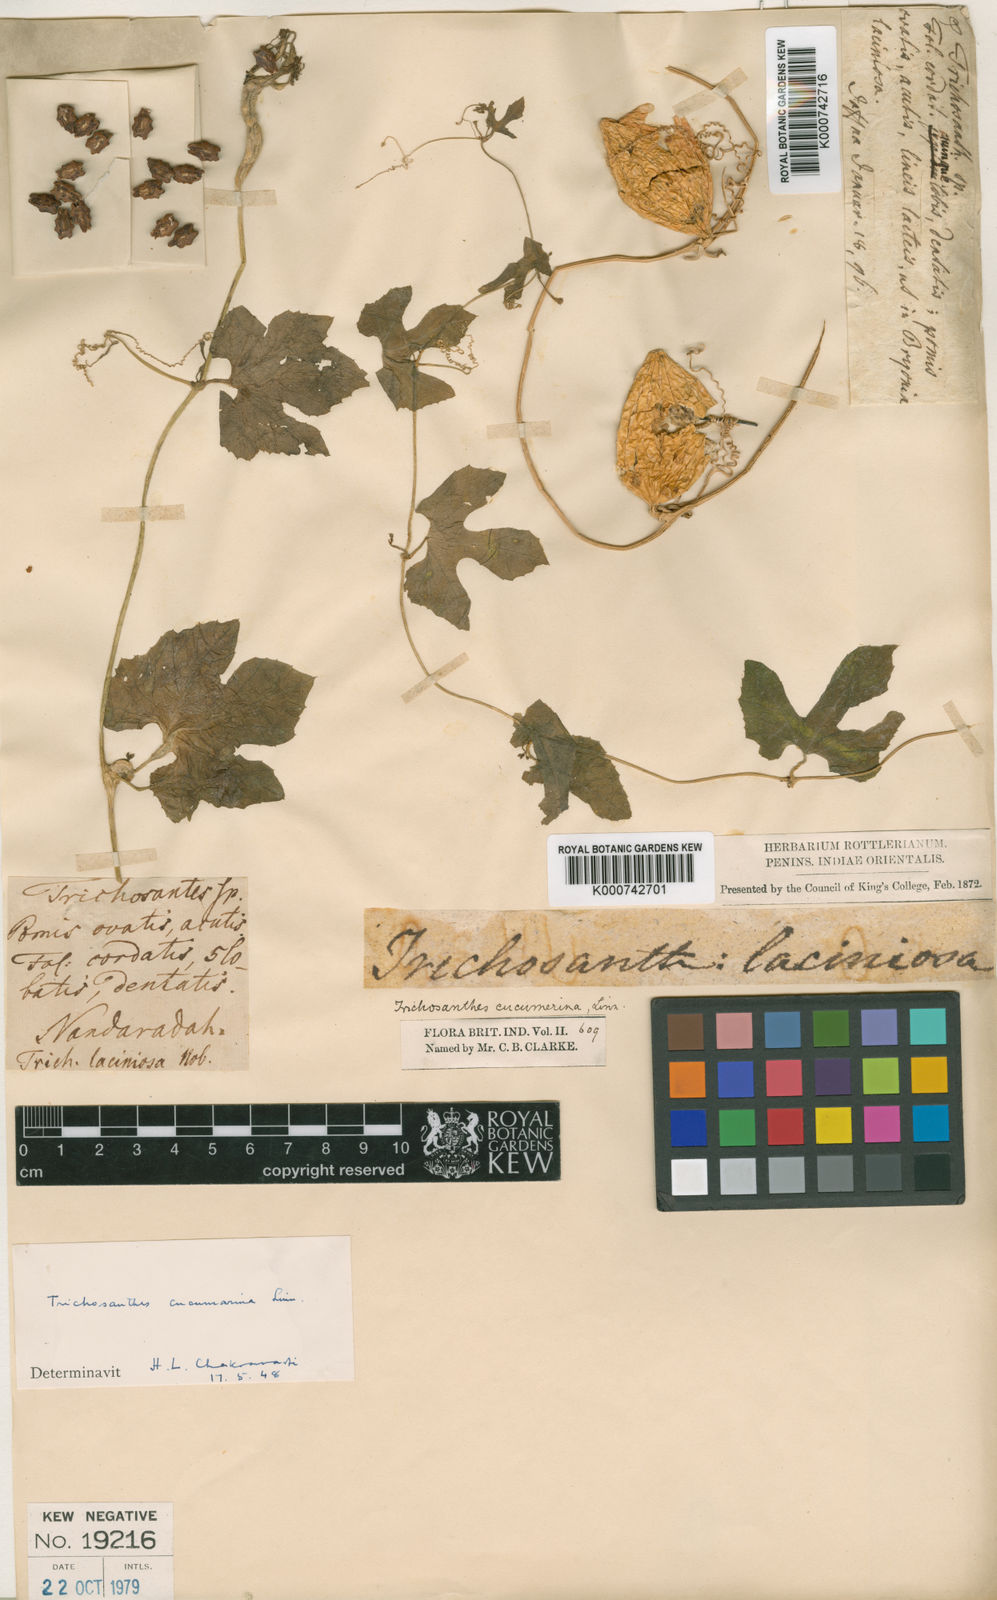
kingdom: Plantae
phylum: Tracheophyta
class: Magnoliopsida
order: Cucurbitales
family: Cucurbitaceae
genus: Trichosanthes
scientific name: Trichosanthes cucumerina
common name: Snakegourd
